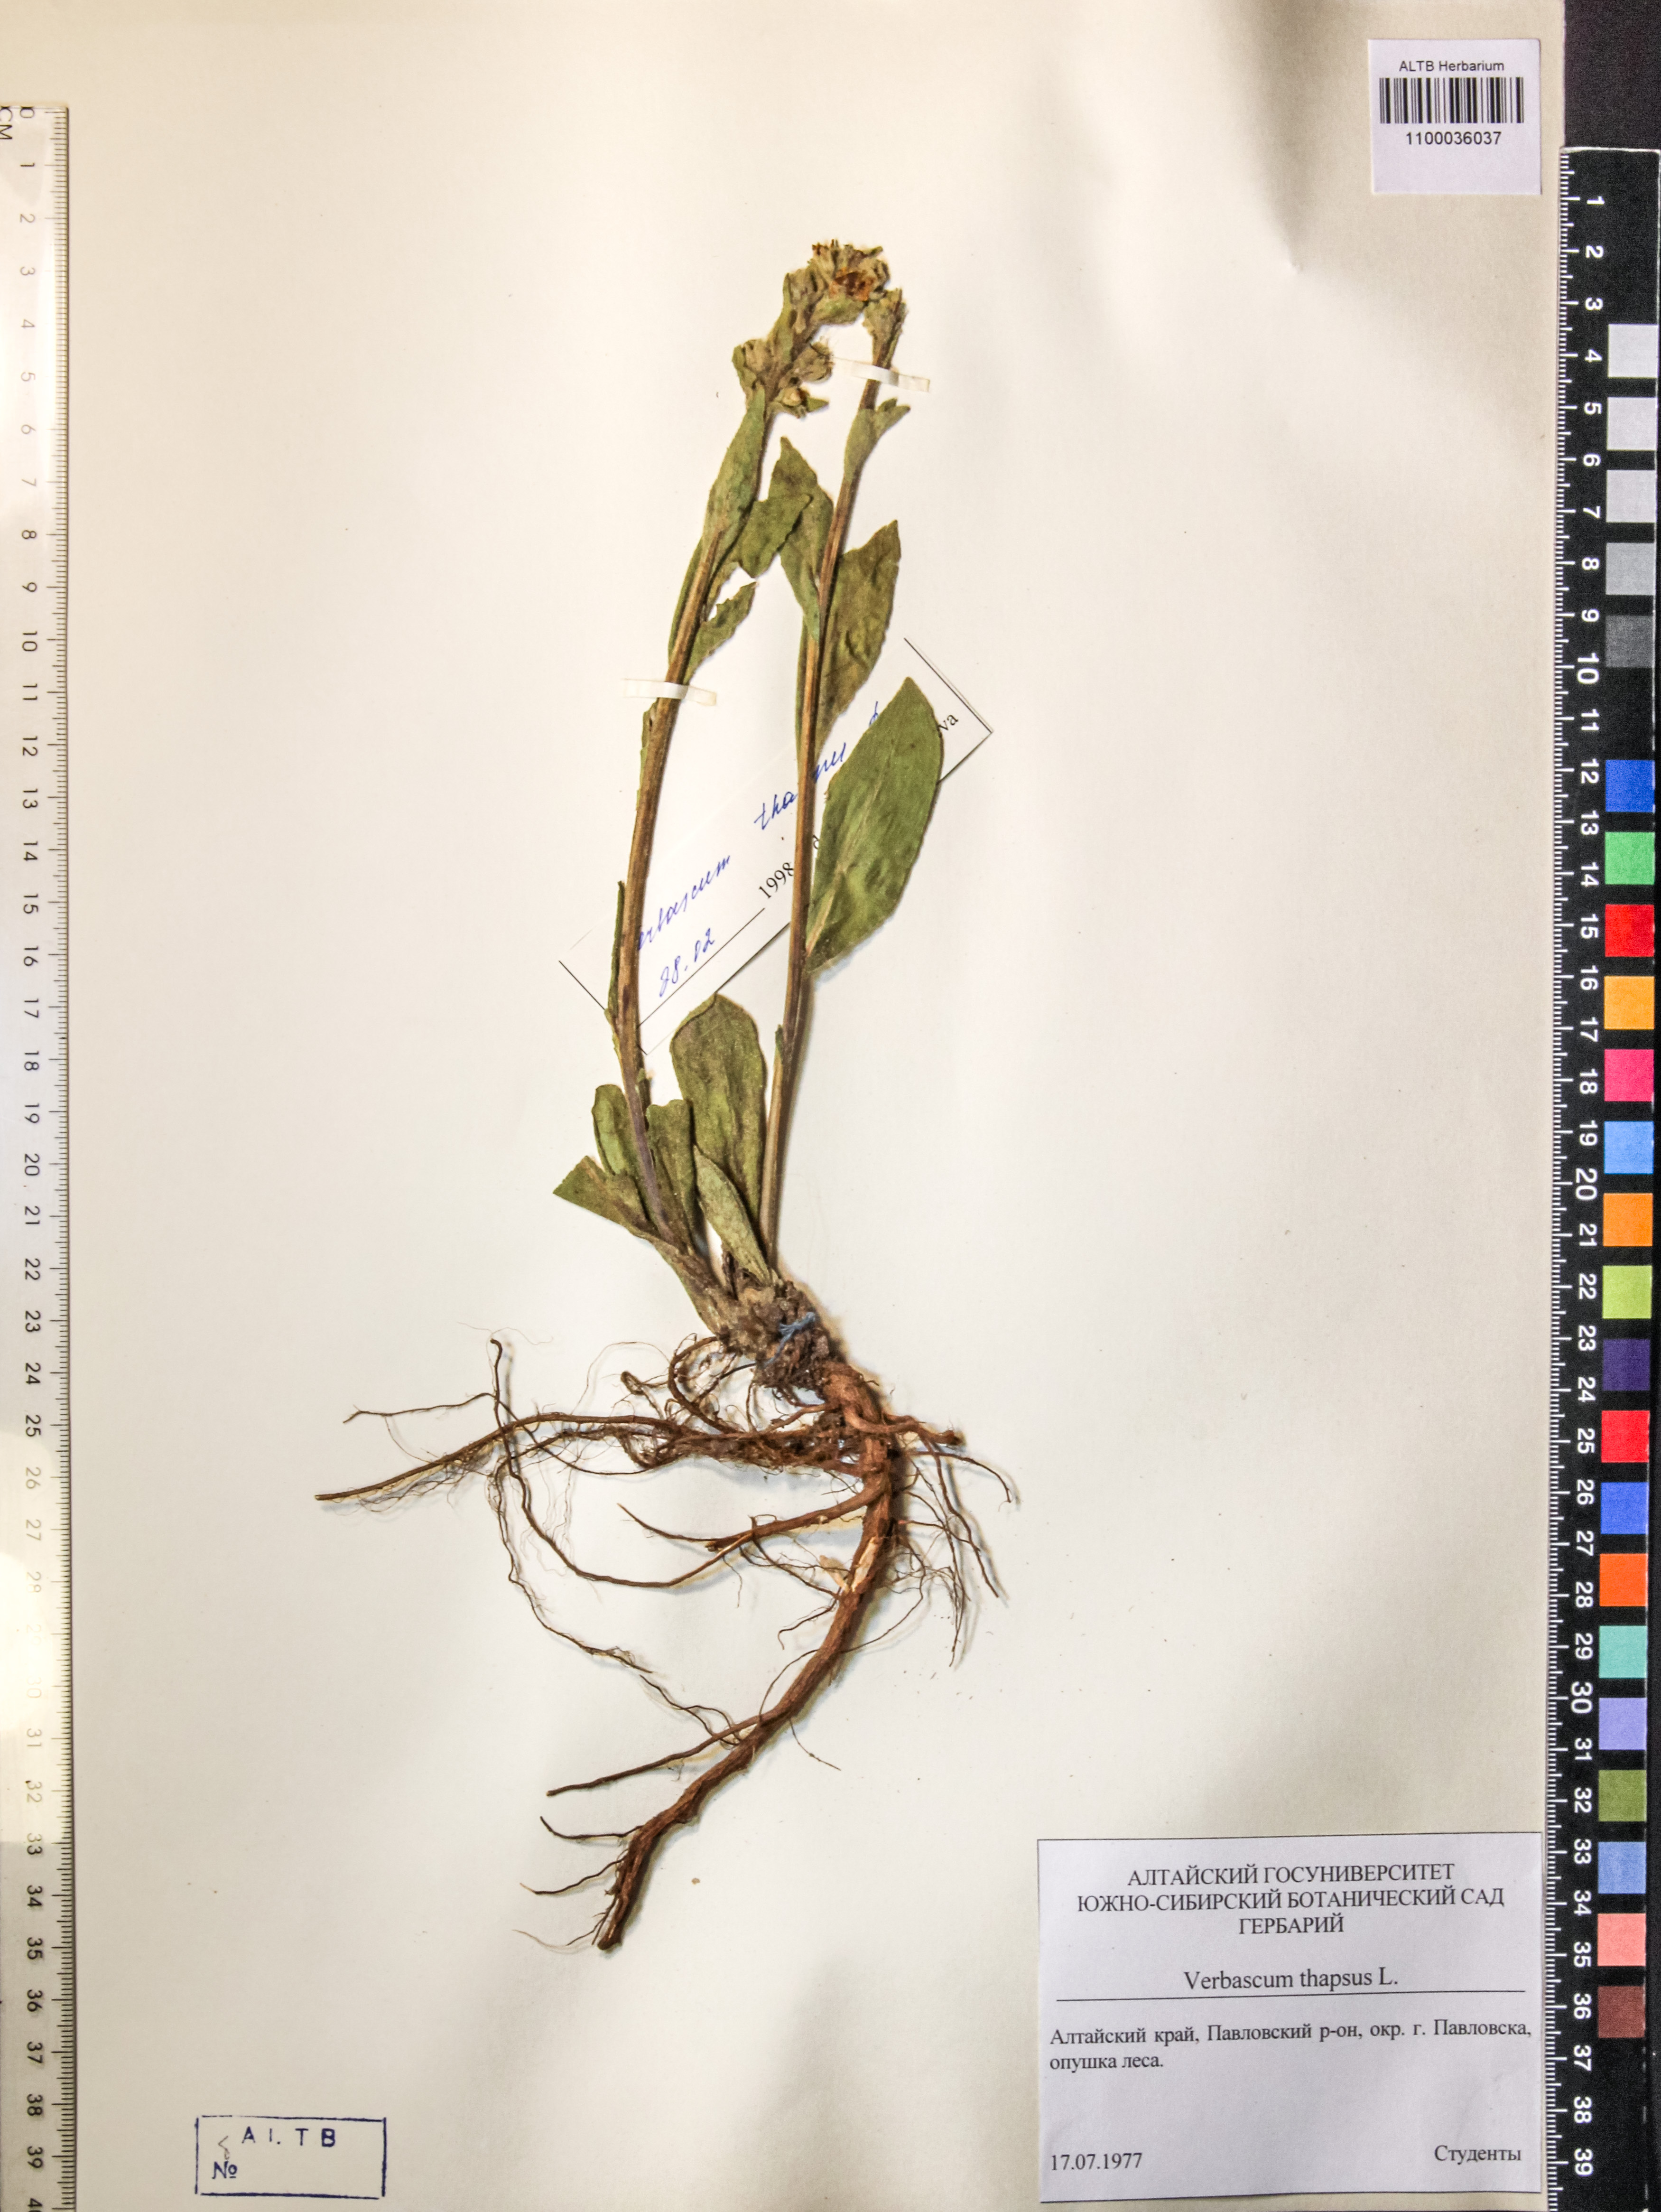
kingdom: Plantae
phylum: Tracheophyta
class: Magnoliopsida
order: Lamiales
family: Scrophulariaceae
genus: Verbascum
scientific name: Verbascum thapsus
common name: Common mullein
